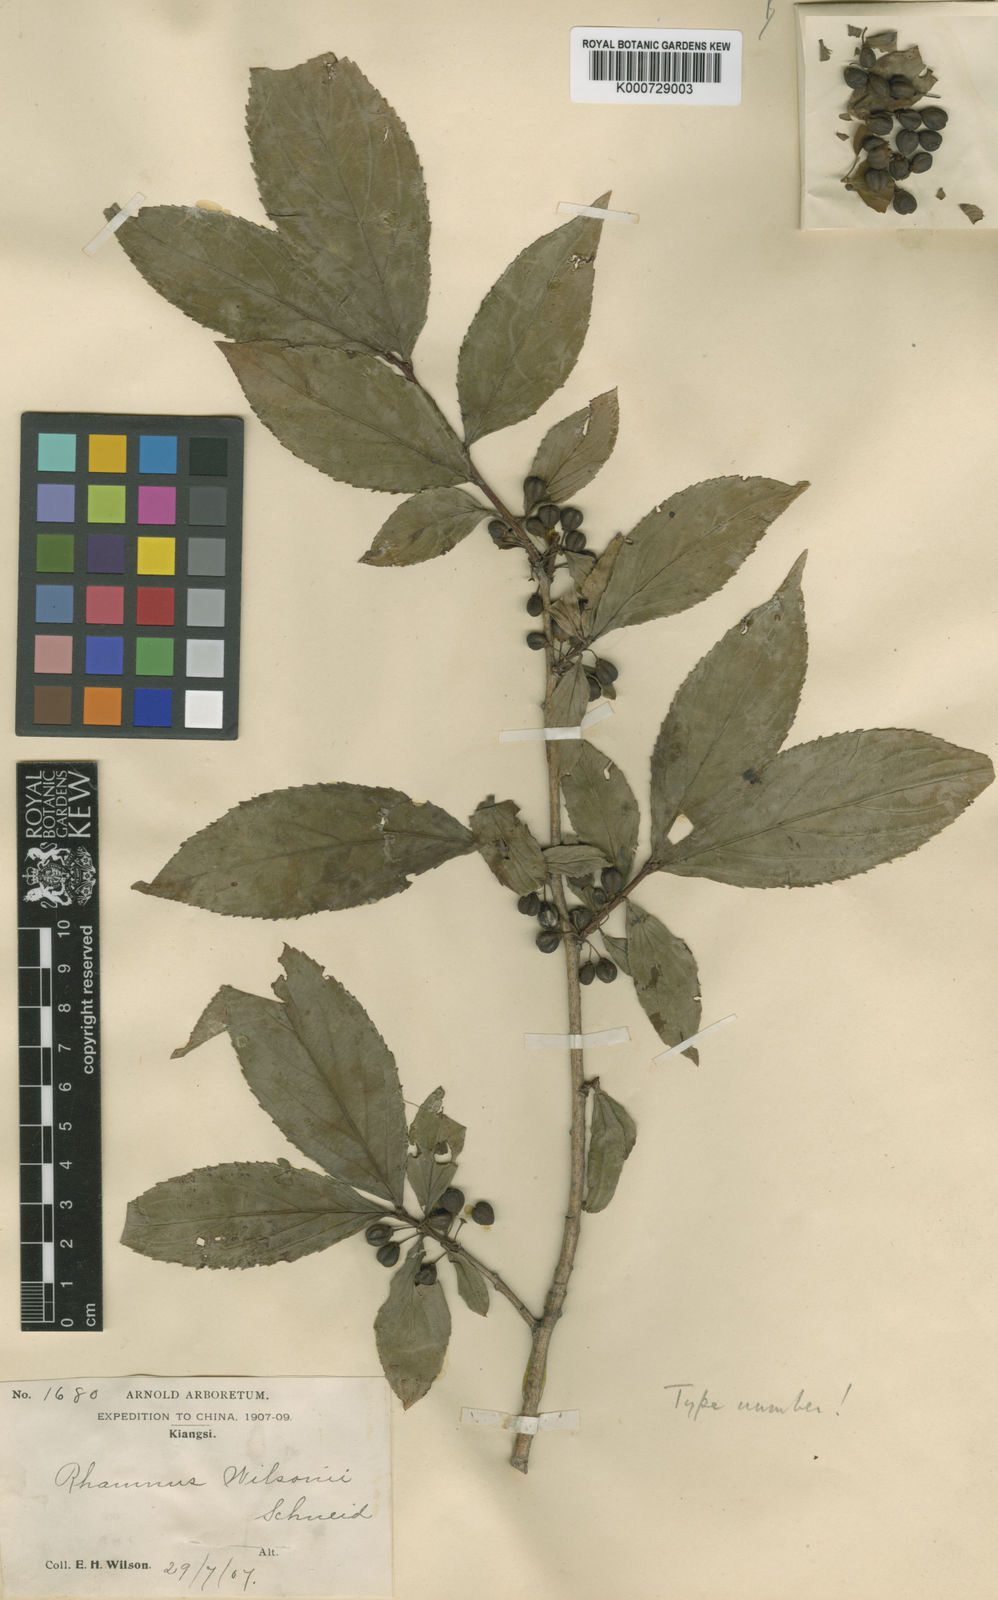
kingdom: Plantae
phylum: Tracheophyta
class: Magnoliopsida
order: Rosales
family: Rhamnaceae
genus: Rhamnus
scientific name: Rhamnus wilsonii
